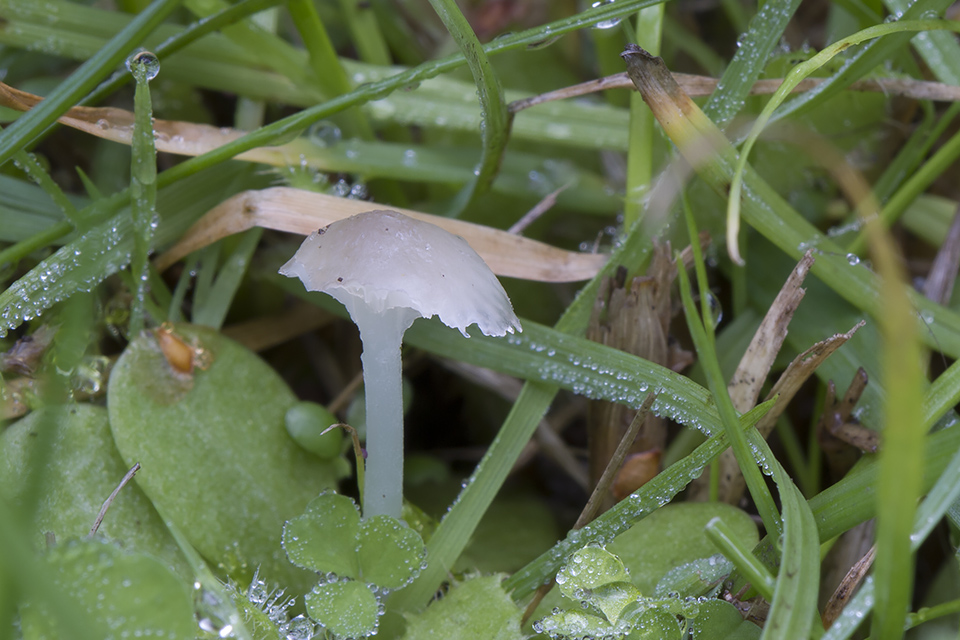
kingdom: Fungi
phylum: Basidiomycota
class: Agaricomycetes
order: Agaricales
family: Mycenaceae
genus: Hemimycena
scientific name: Hemimycena mairei
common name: voks-huesvamp
